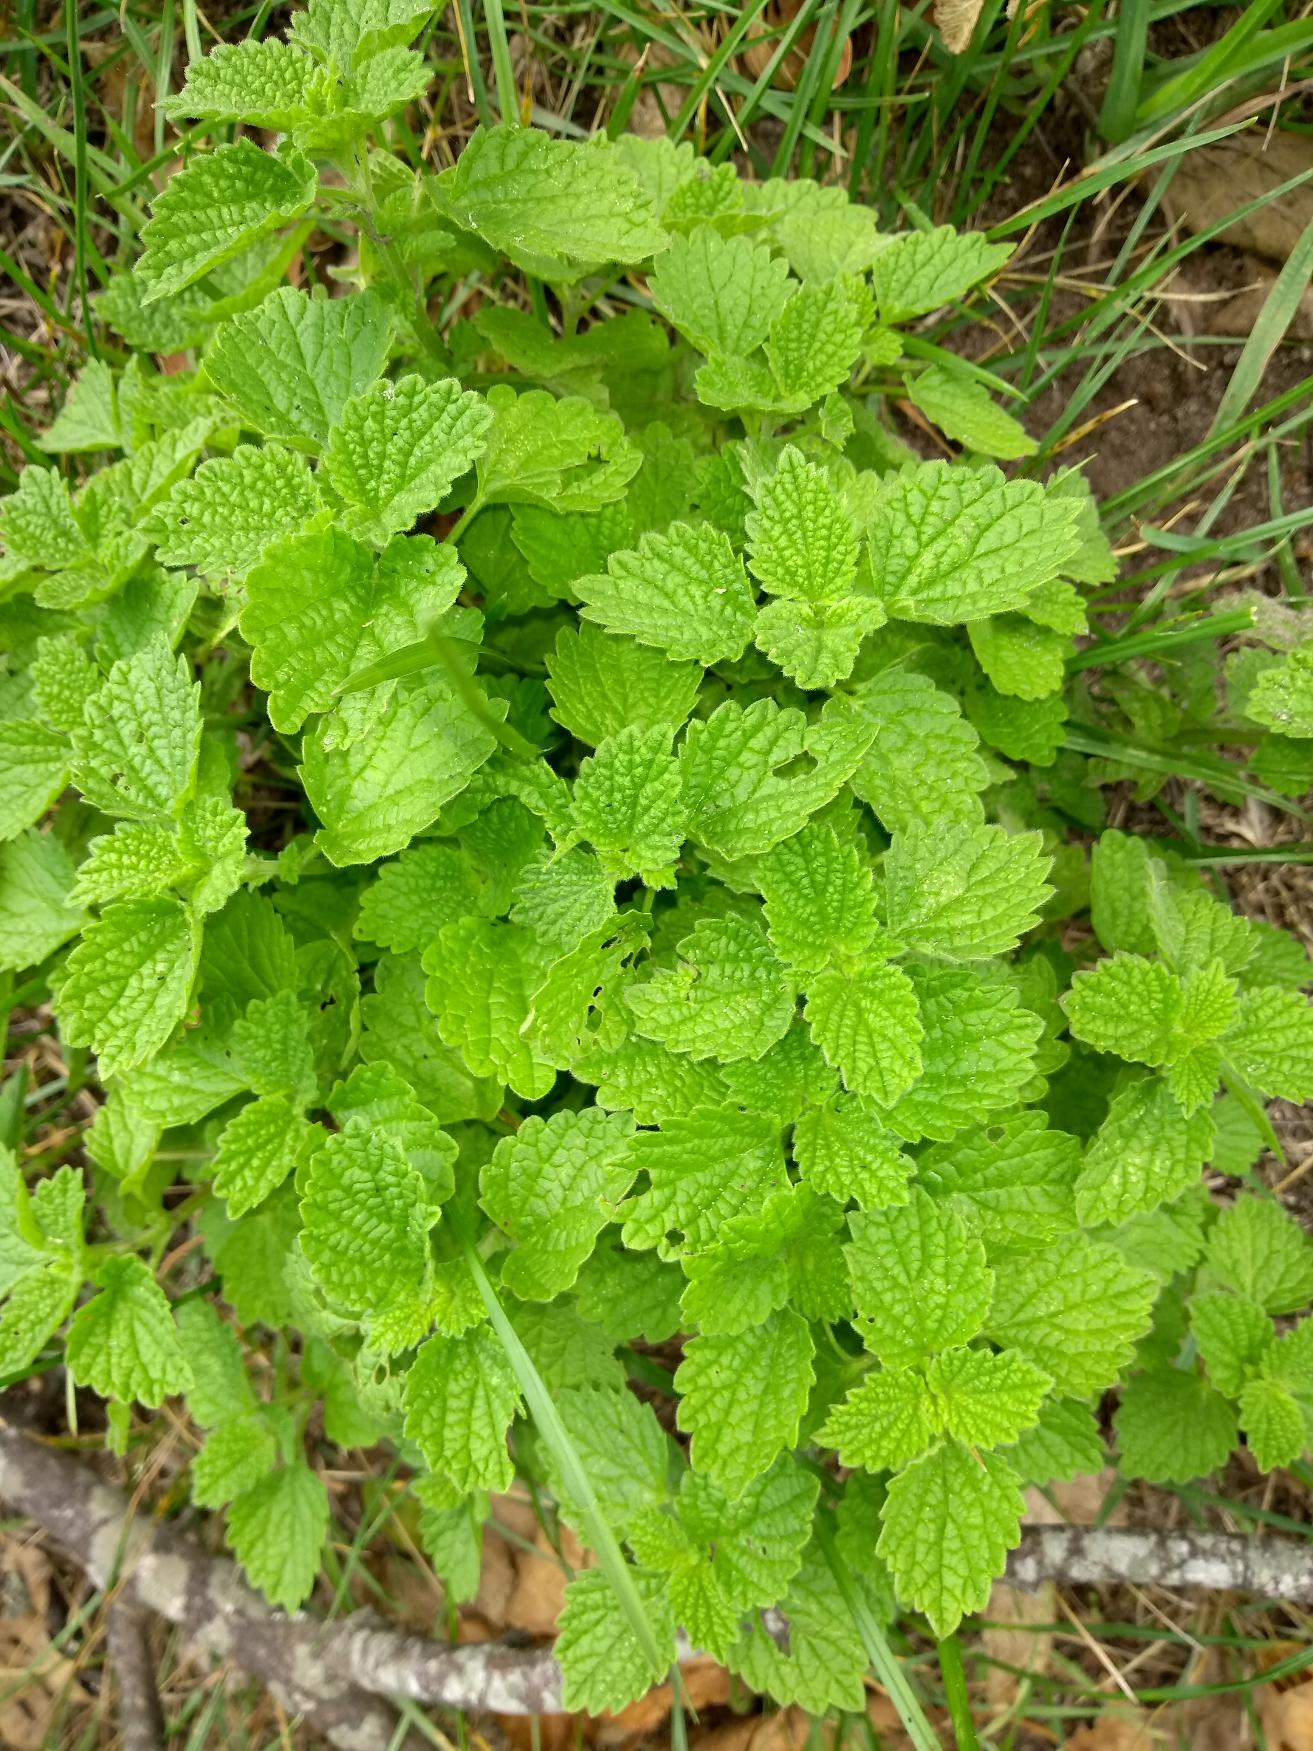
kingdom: Plantae
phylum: Tracheophyta
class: Magnoliopsida
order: Lamiales
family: Lamiaceae
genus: Ballota
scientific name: Ballota nigra
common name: Tandbæger
